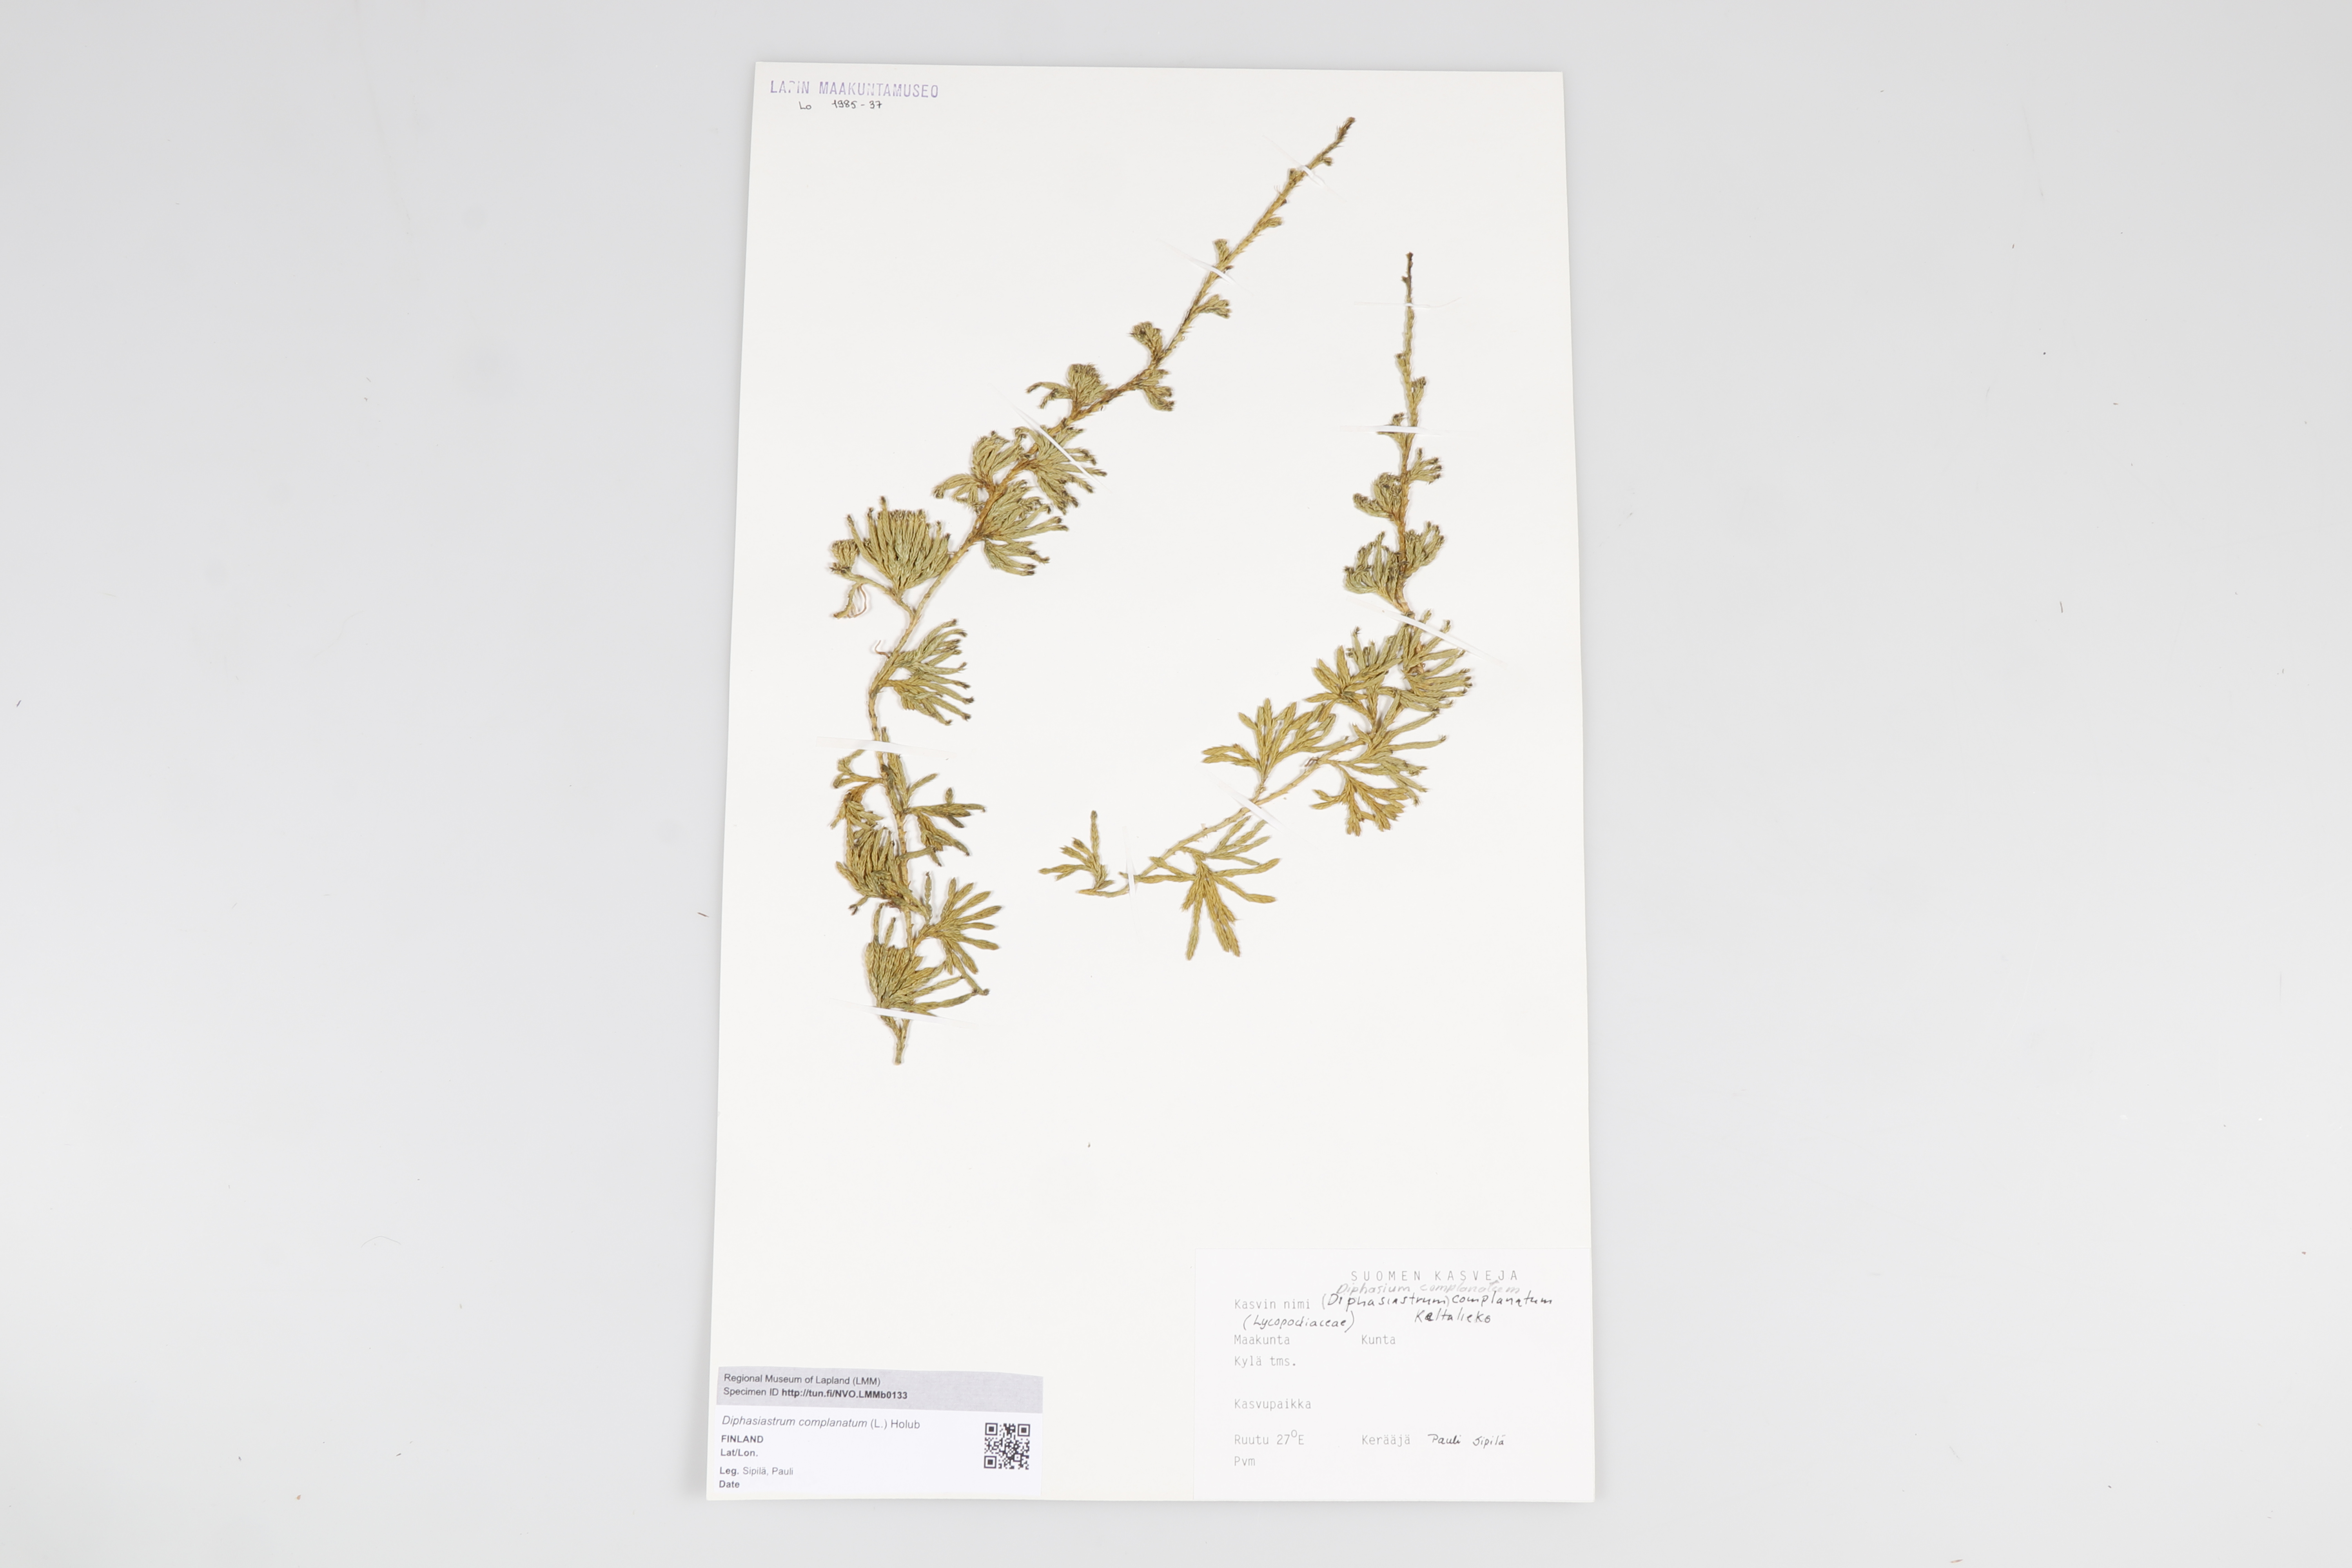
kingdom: Plantae
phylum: Tracheophyta
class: Lycopodiopsida
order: Lycopodiales
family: Lycopodiaceae
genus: Diphasiastrum
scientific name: Diphasiastrum
